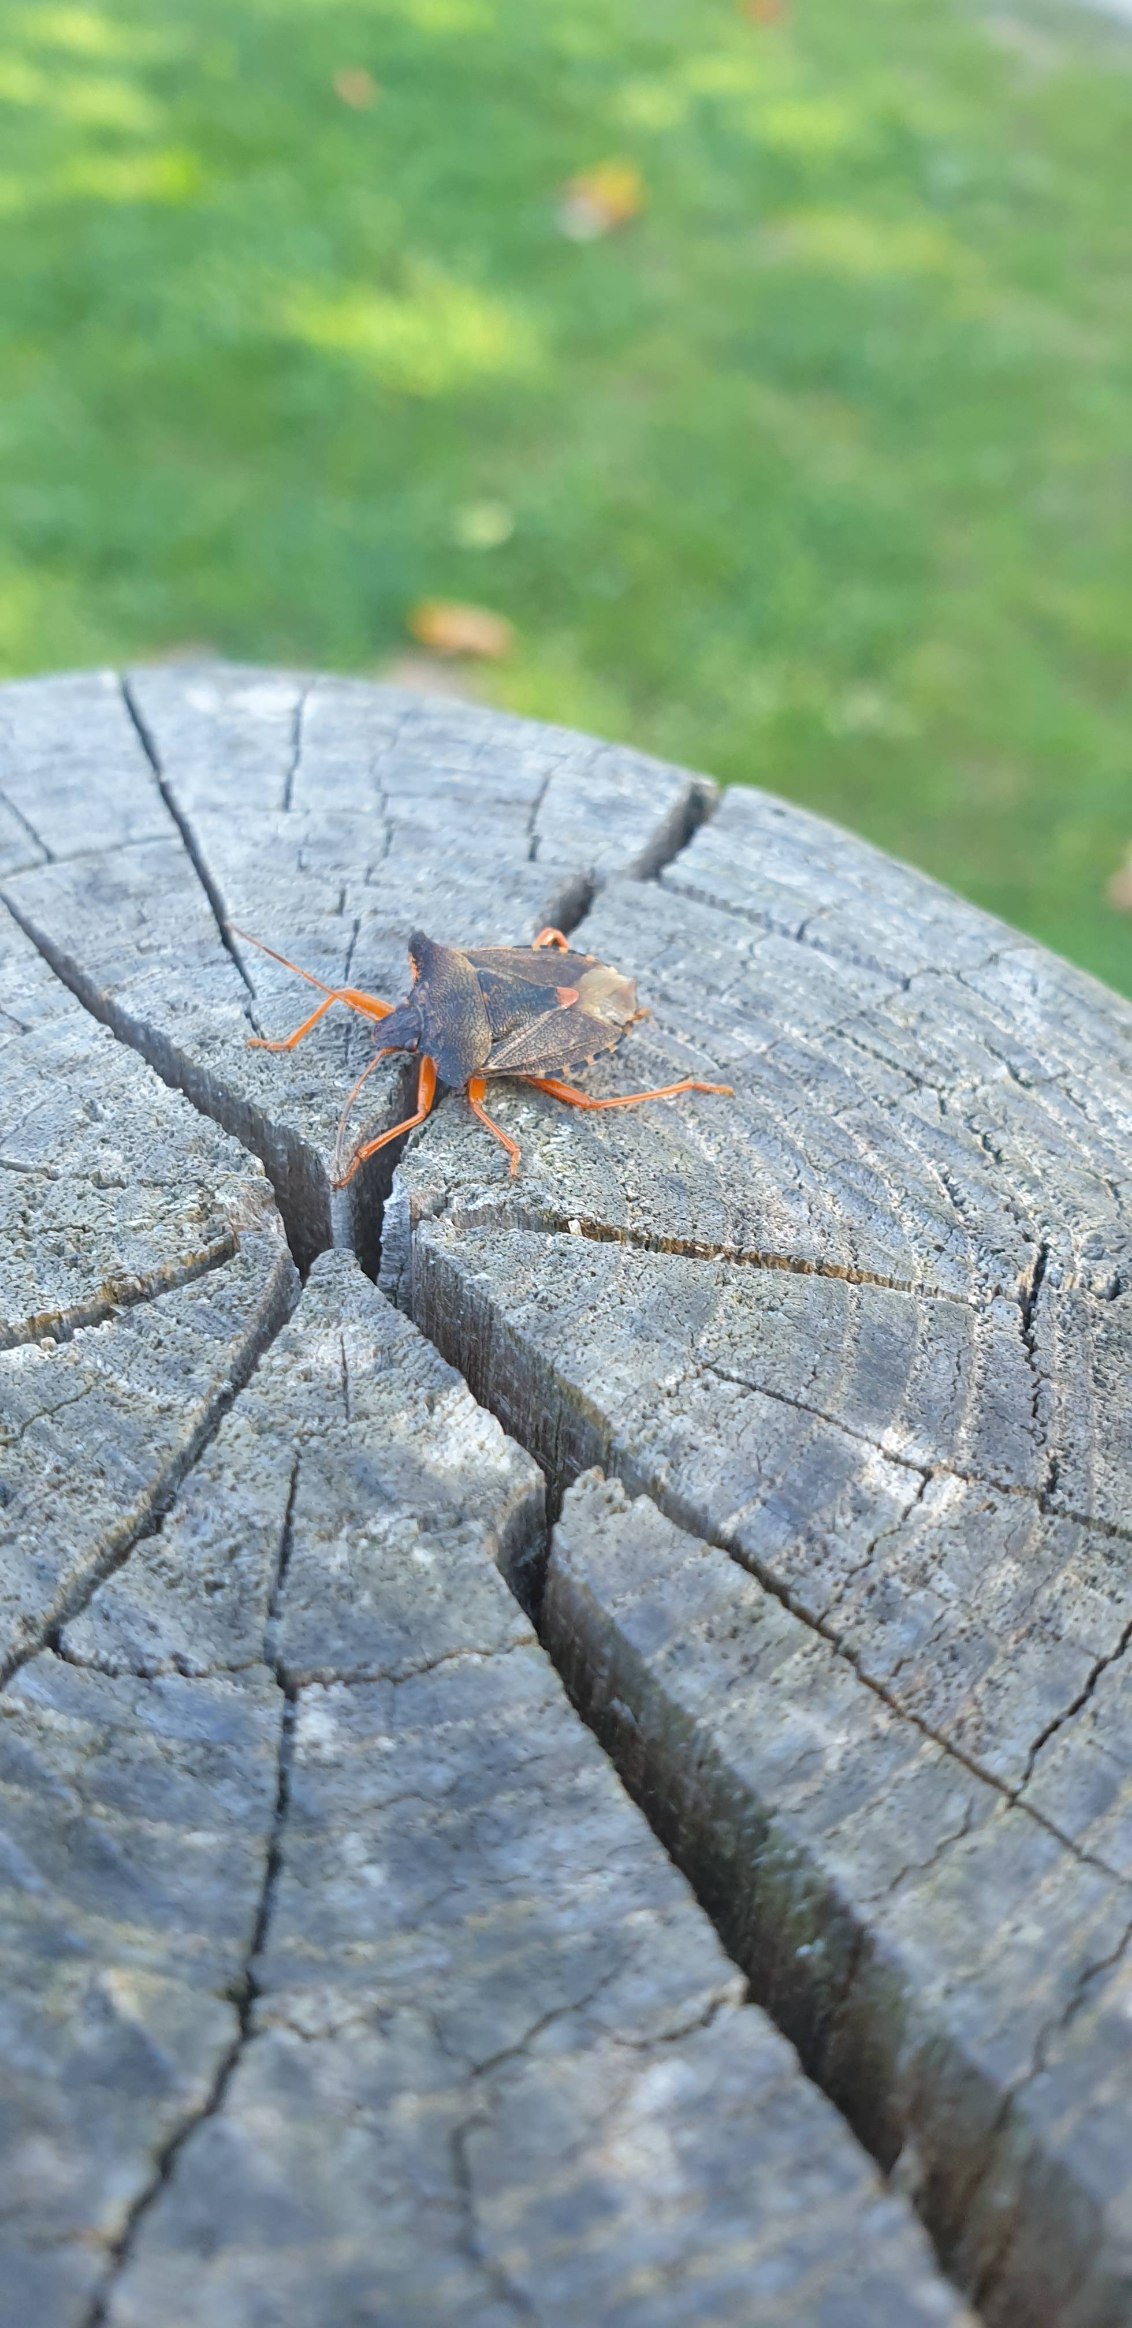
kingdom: Animalia
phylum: Arthropoda
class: Insecta
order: Hemiptera
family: Pentatomidae
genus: Pentatoma
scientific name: Pentatoma rufipes
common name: Rødbenet bredtæge
